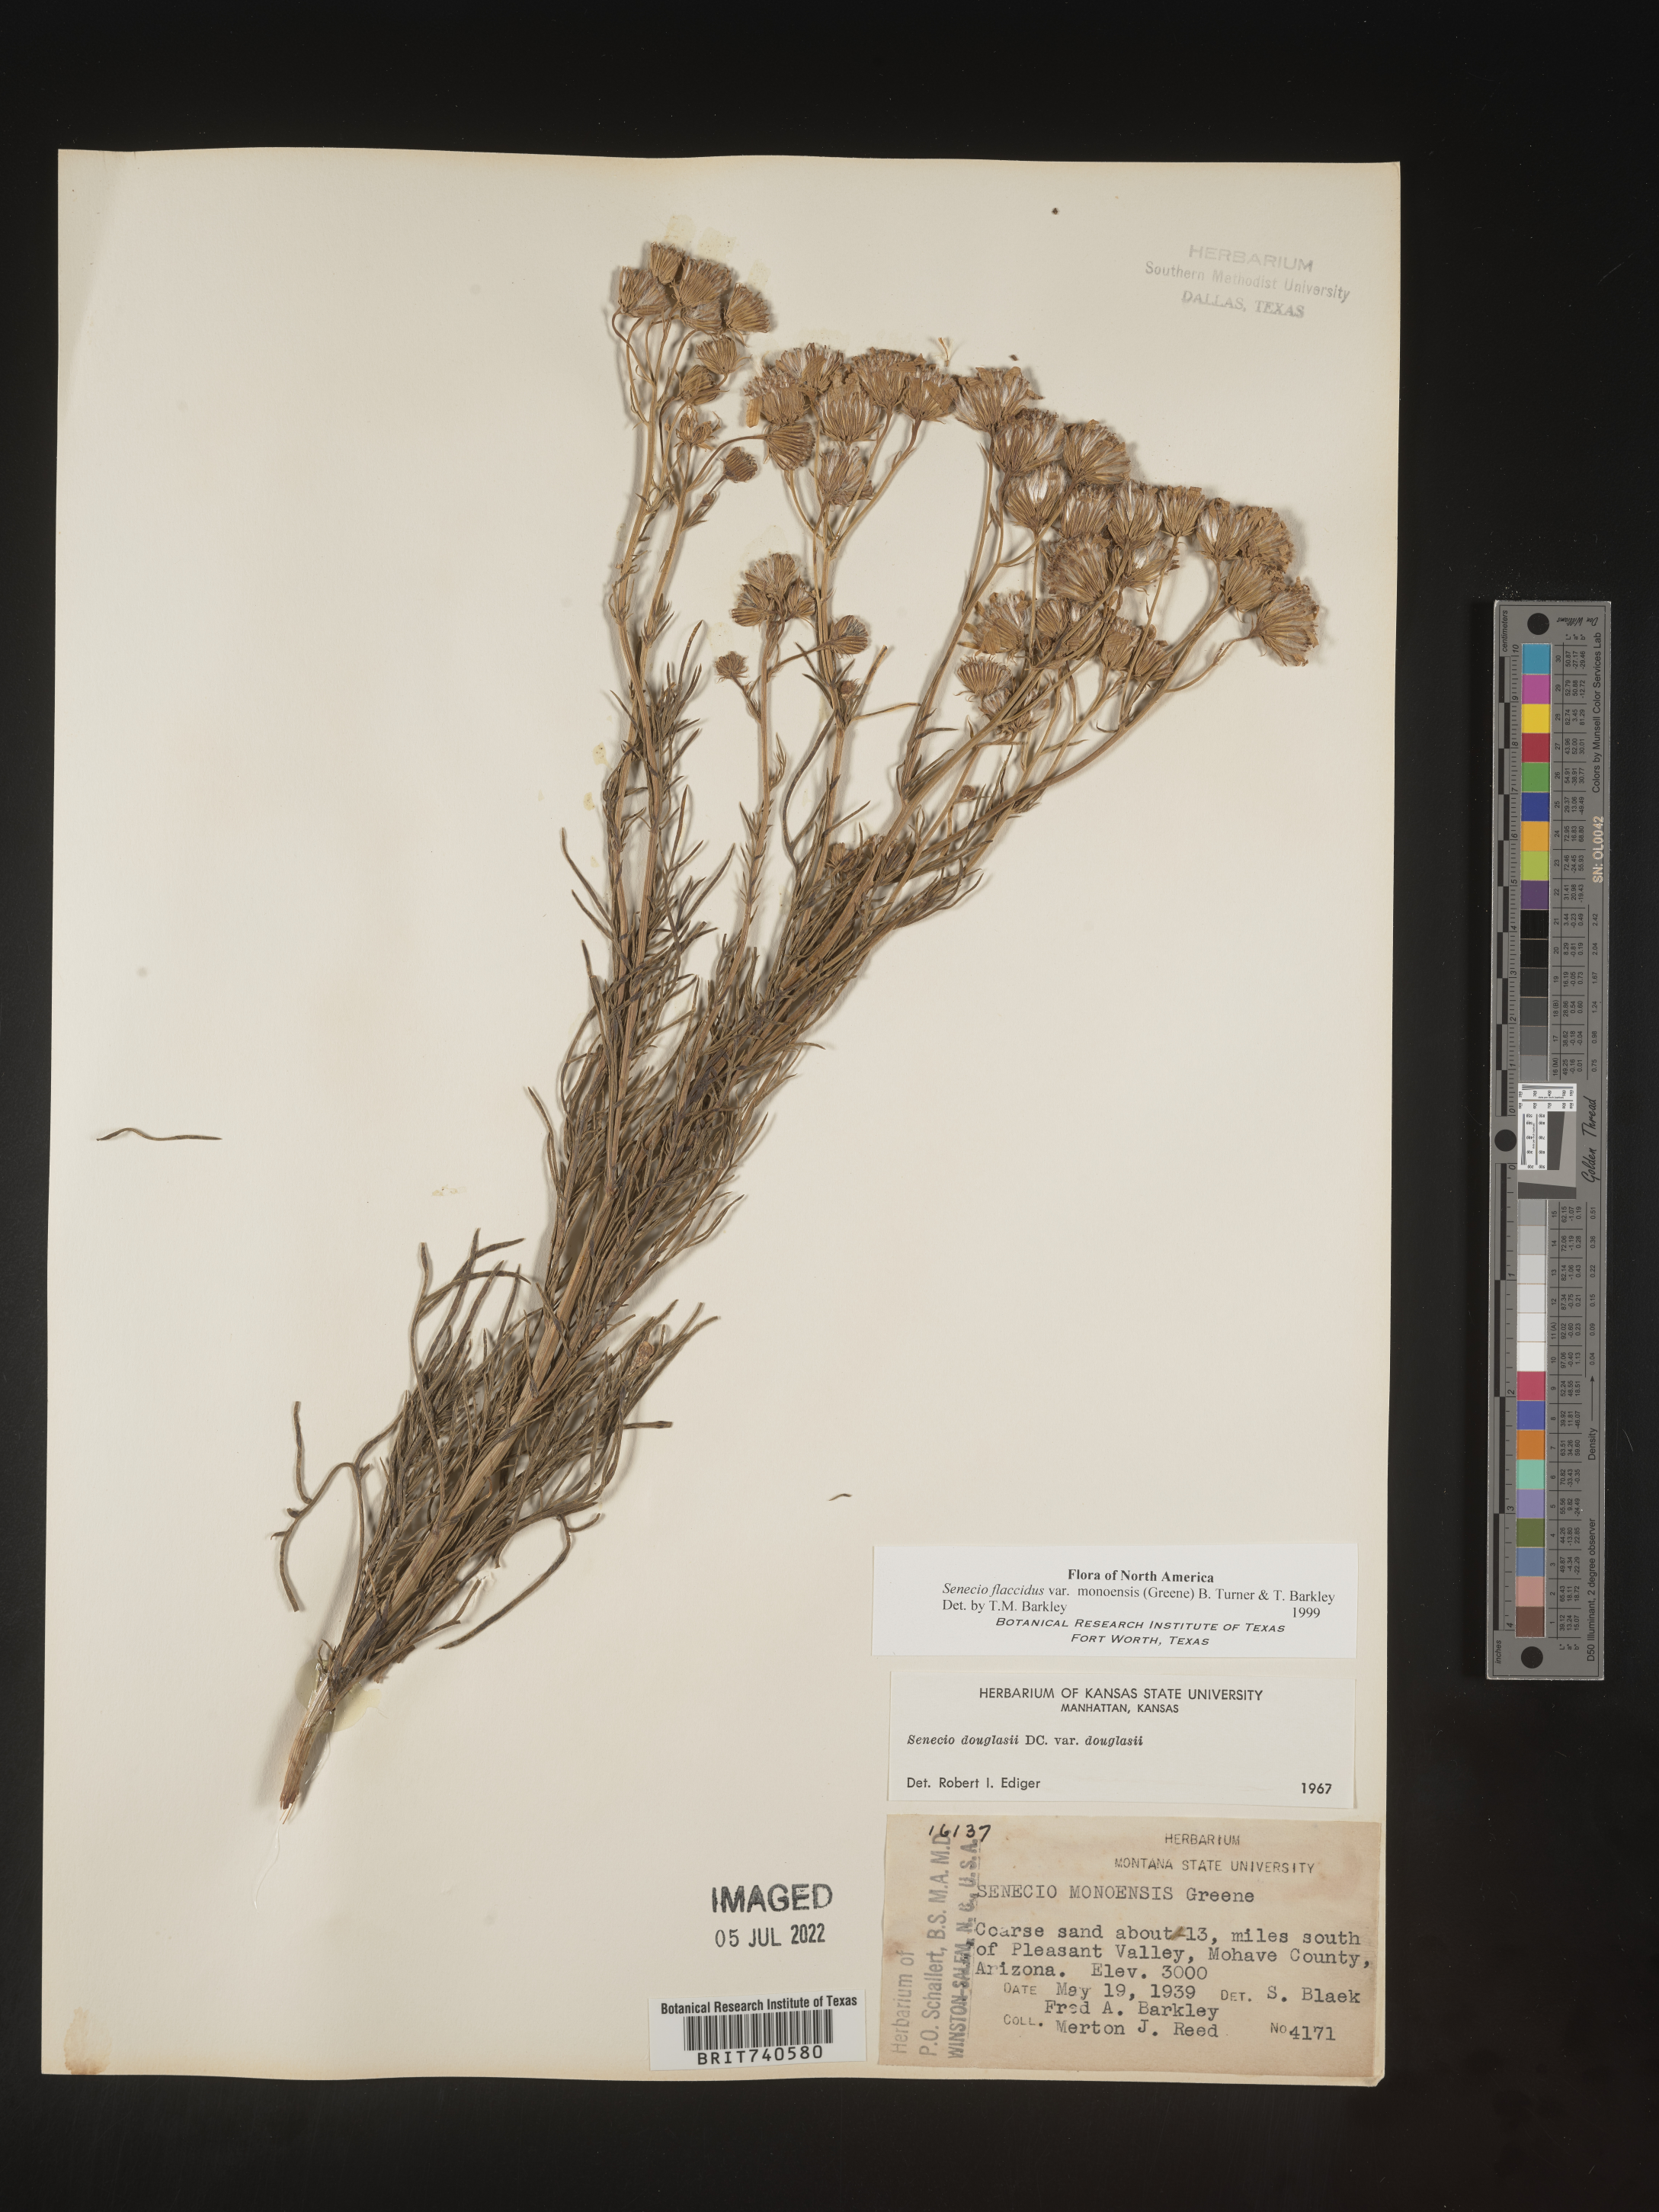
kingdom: Plantae
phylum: Tracheophyta
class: Magnoliopsida
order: Asterales
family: Asteraceae
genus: Senecio
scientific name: Senecio flaccidus
